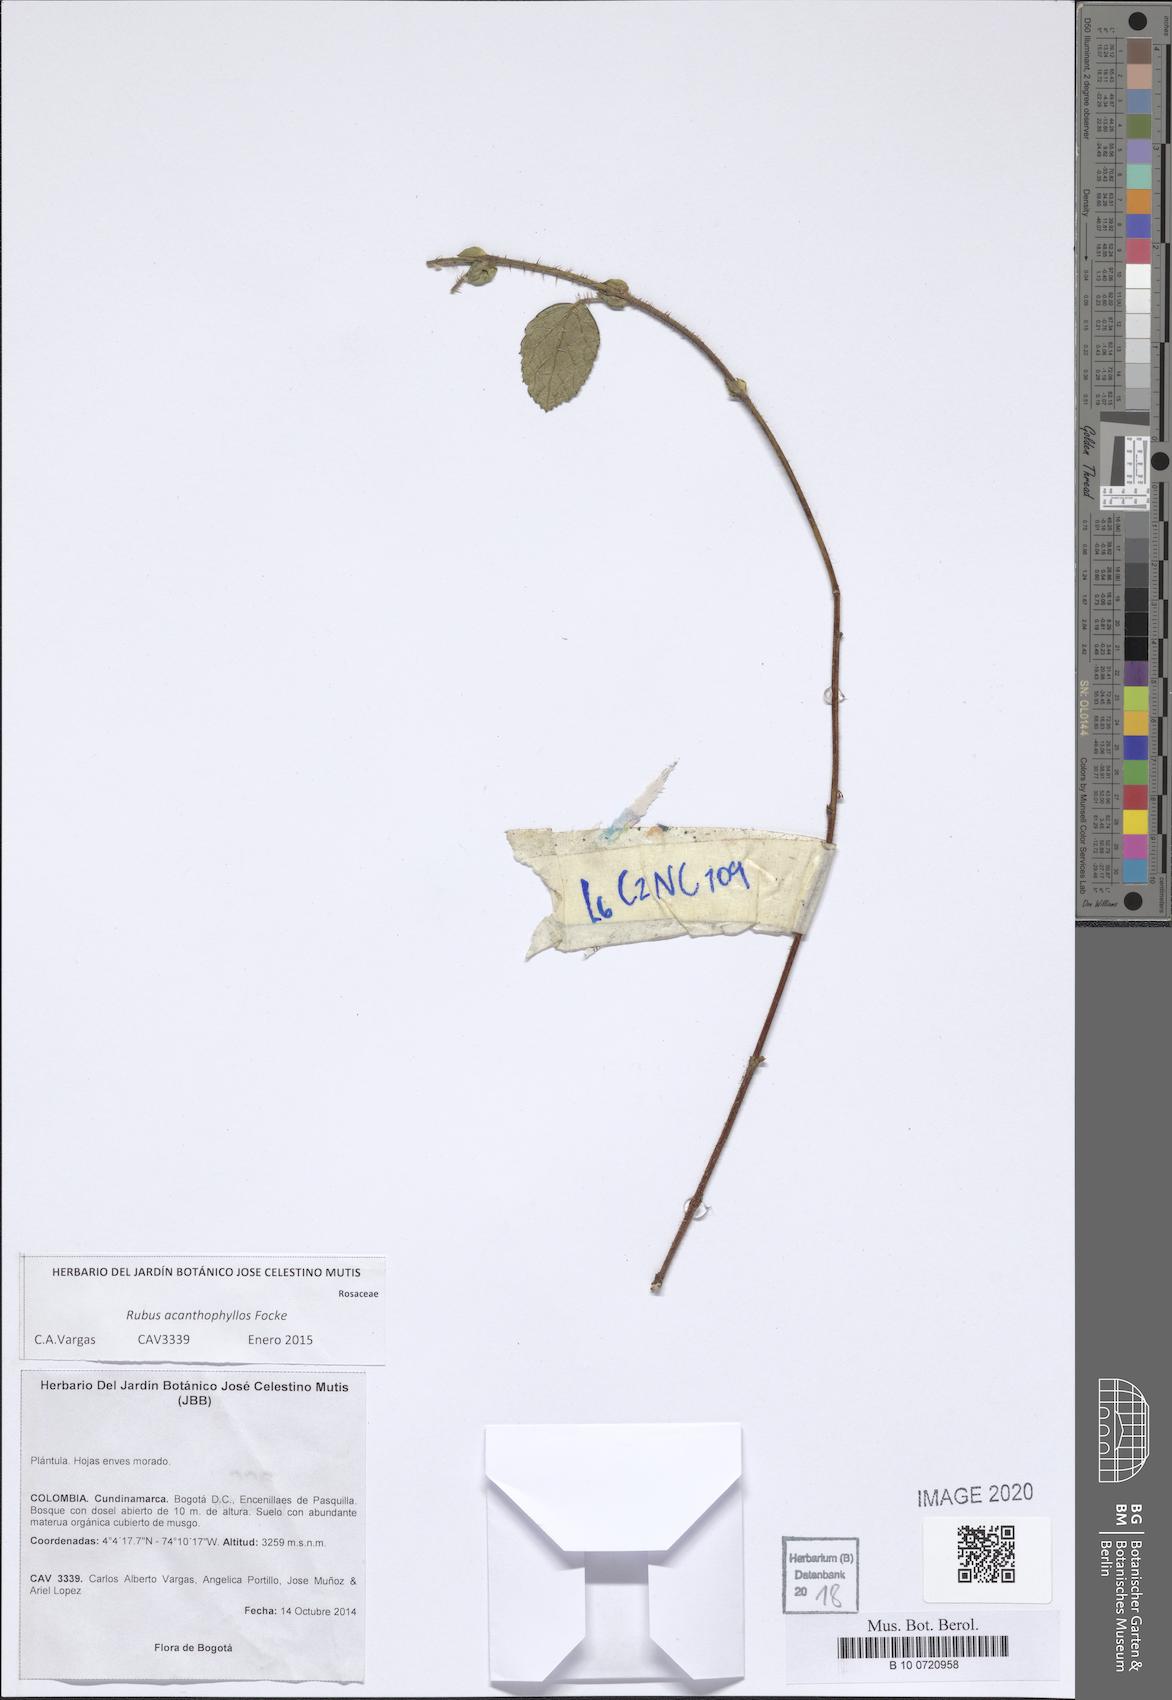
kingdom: Plantae
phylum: Tracheophyta
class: Magnoliopsida
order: Rosales
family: Rosaceae
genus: Rubus
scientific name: Rubus acanthophyllos
